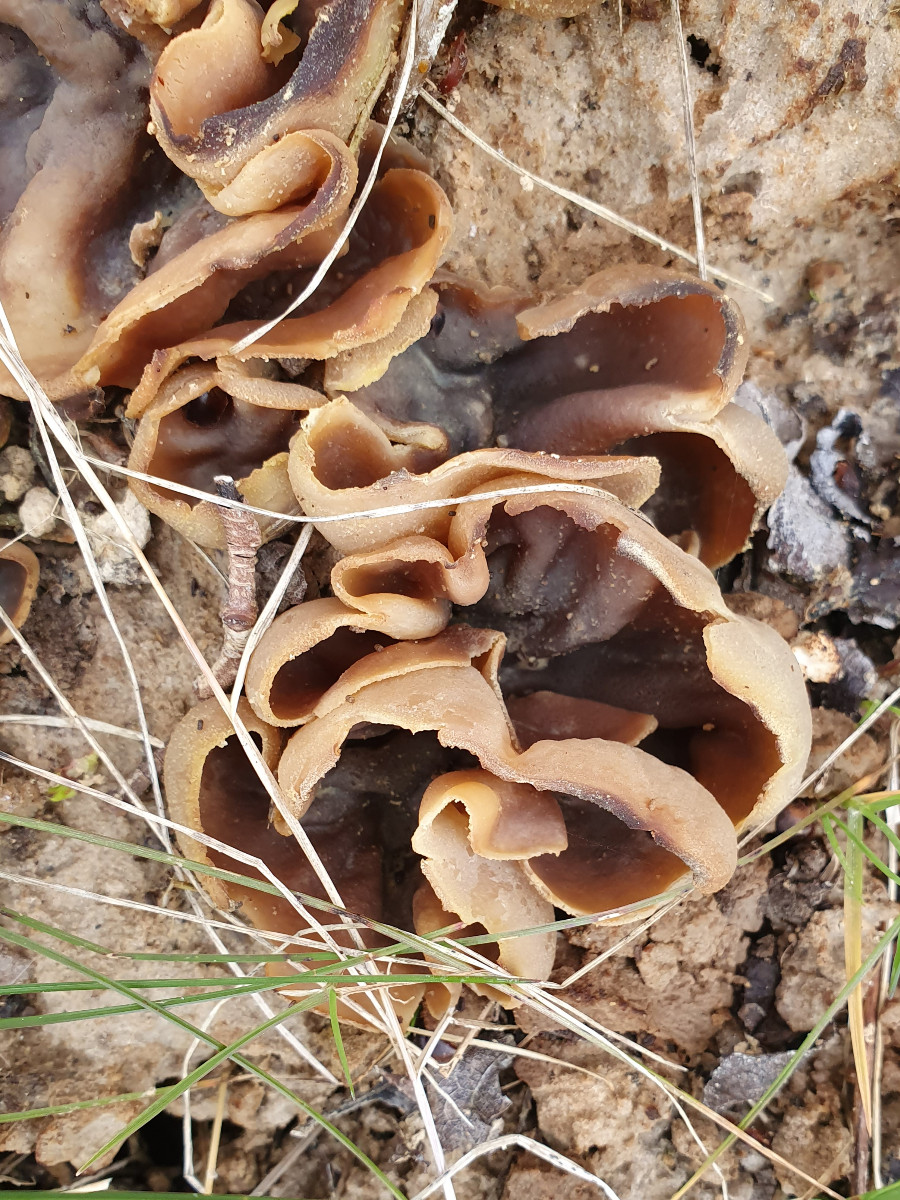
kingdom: Fungi
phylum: Ascomycota
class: Pezizomycetes
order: Pezizales
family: Pezizaceae
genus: Peziza
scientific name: Peziza vesiculosa
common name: blære-bægersvamp
